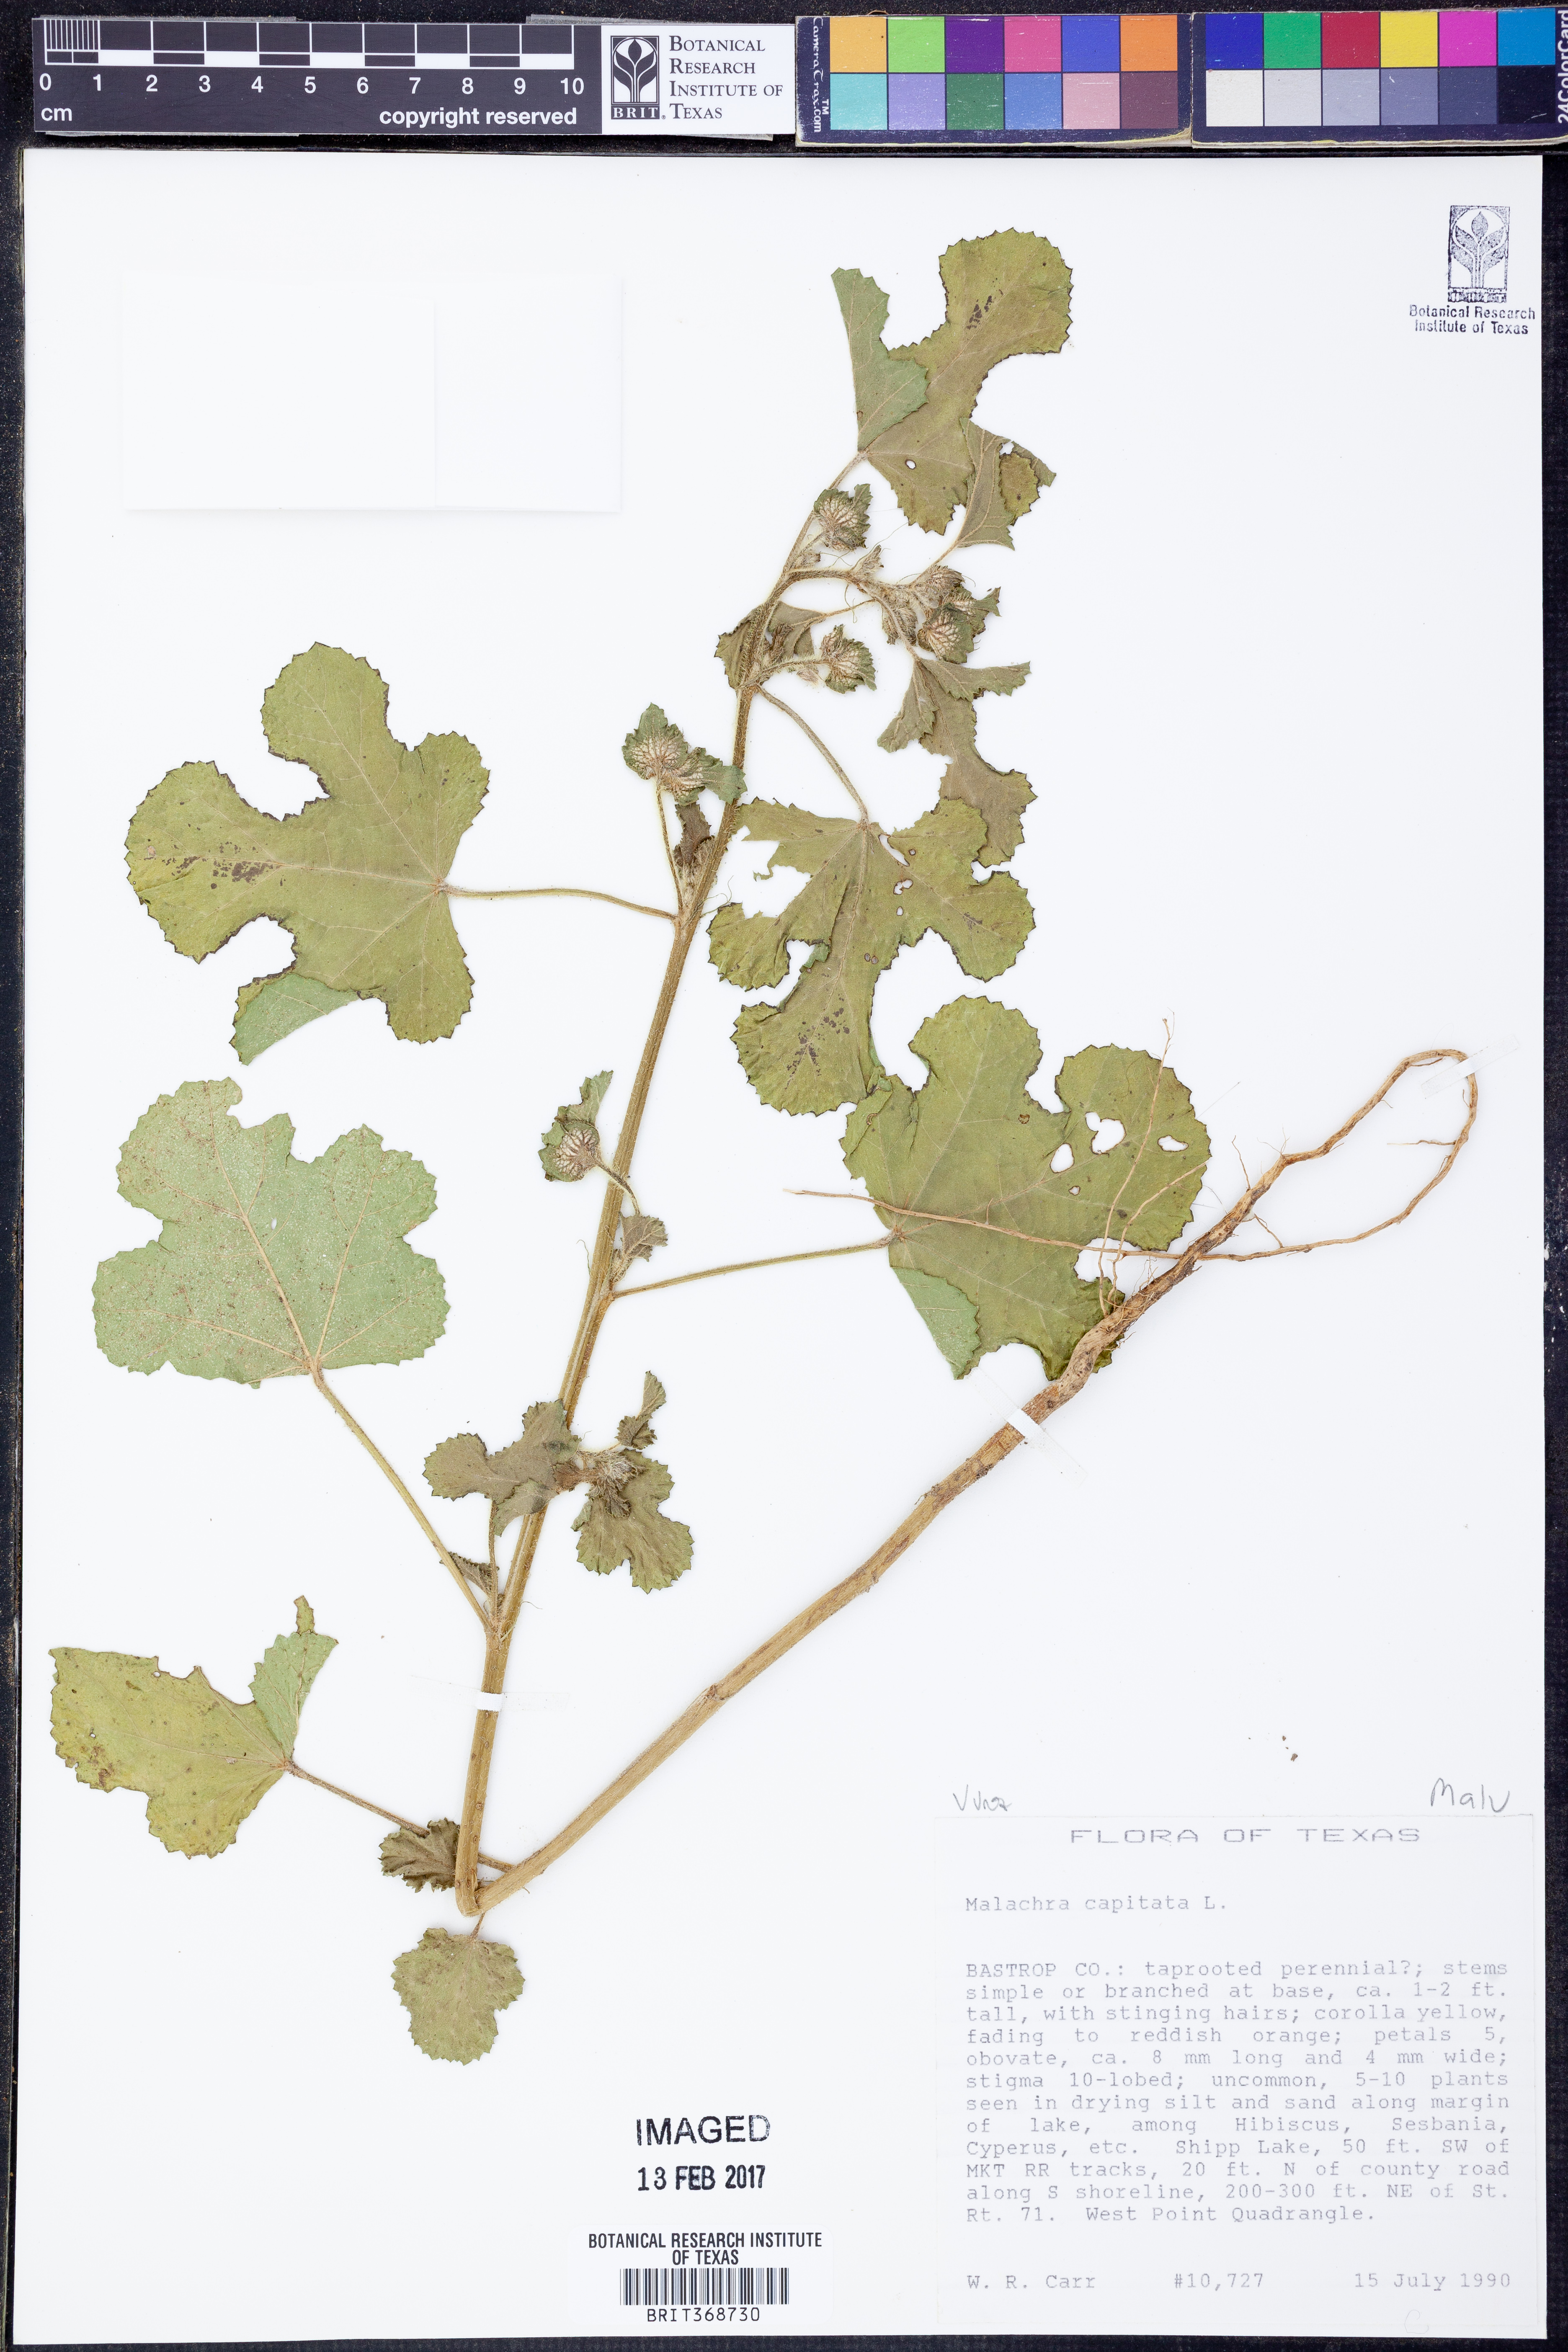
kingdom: Plantae
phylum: Tracheophyta
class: Magnoliopsida
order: Malvales
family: Malvaceae
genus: Malachra
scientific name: Malachra capitata
